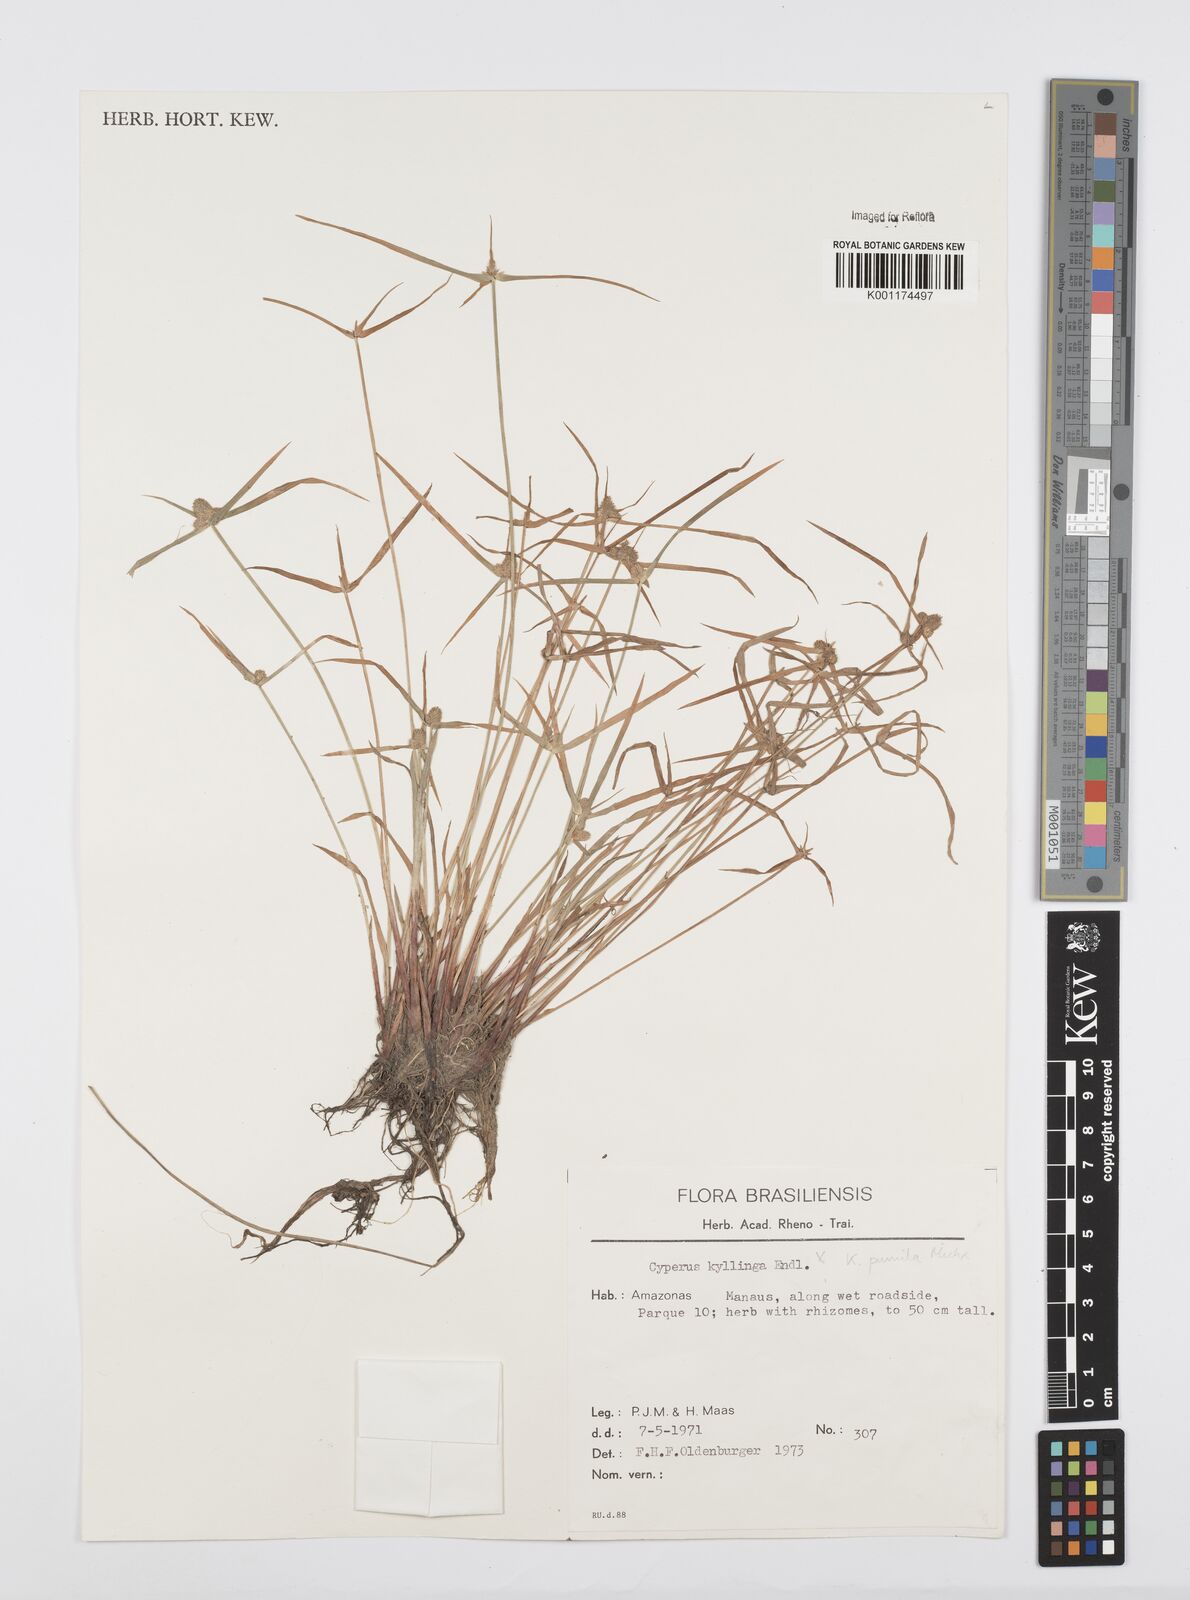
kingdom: Plantae
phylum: Tracheophyta
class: Liliopsida
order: Poales
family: Cyperaceae
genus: Cyperus
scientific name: Cyperus
